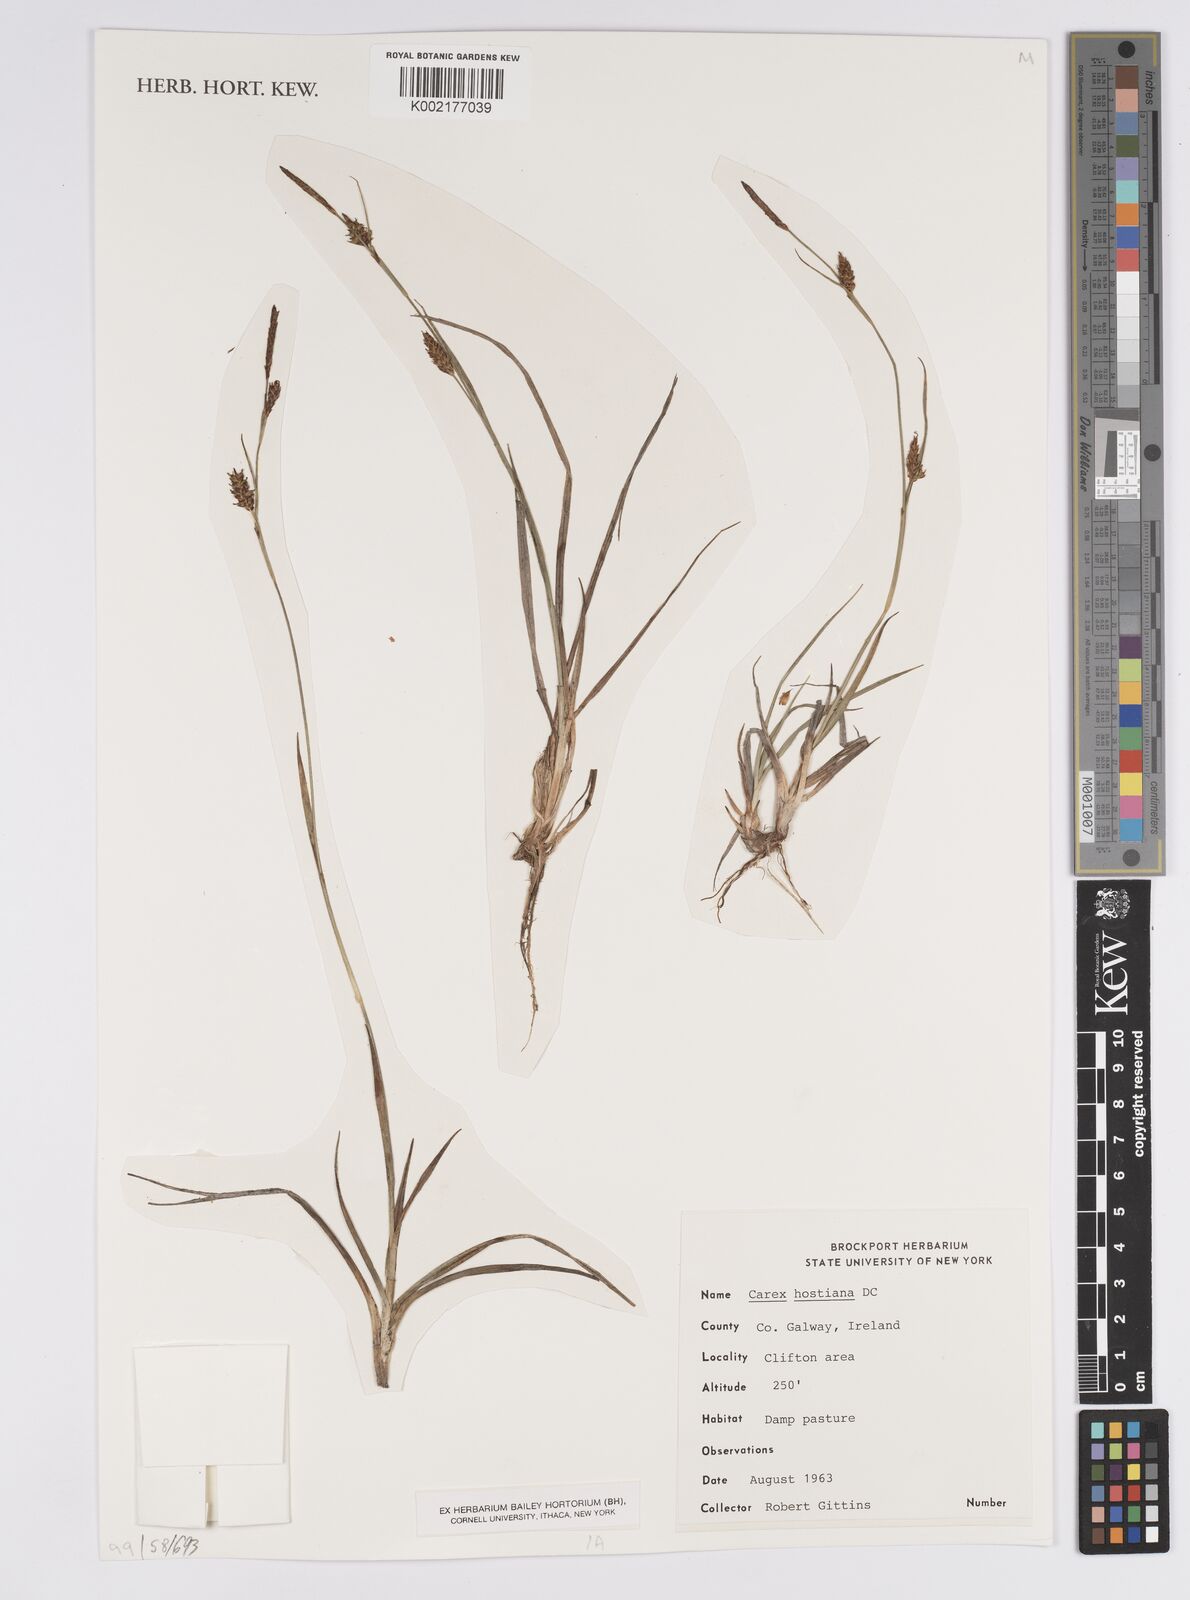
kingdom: Plantae
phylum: Tracheophyta
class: Liliopsida
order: Poales
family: Cyperaceae
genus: Carex
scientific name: Carex hostiana
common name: Tawny sedge
